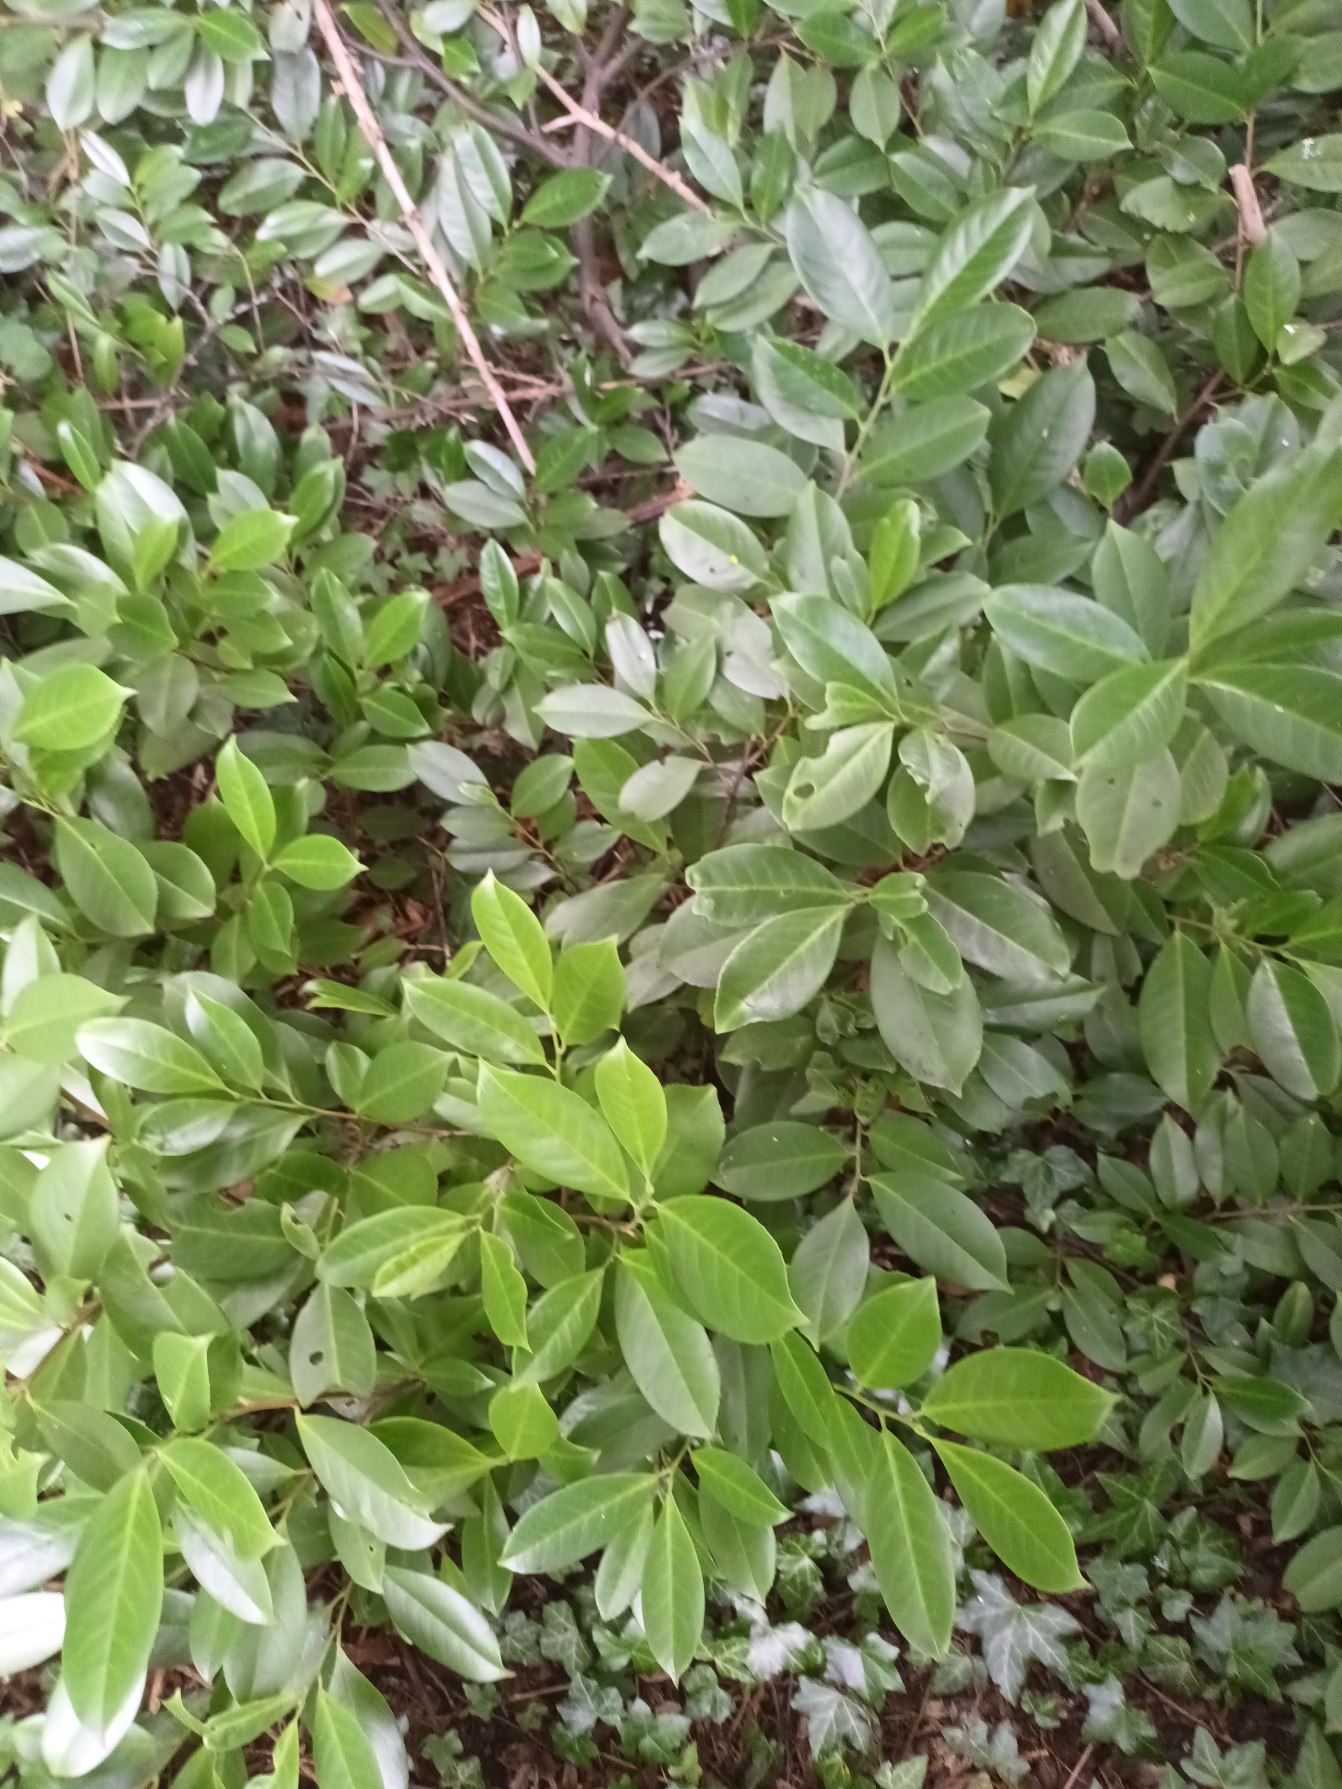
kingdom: Plantae
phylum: Tracheophyta
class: Magnoliopsida
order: Rosales
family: Rosaceae
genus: Prunus
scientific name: Prunus laurocerasus
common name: Laurbærkirsebær
